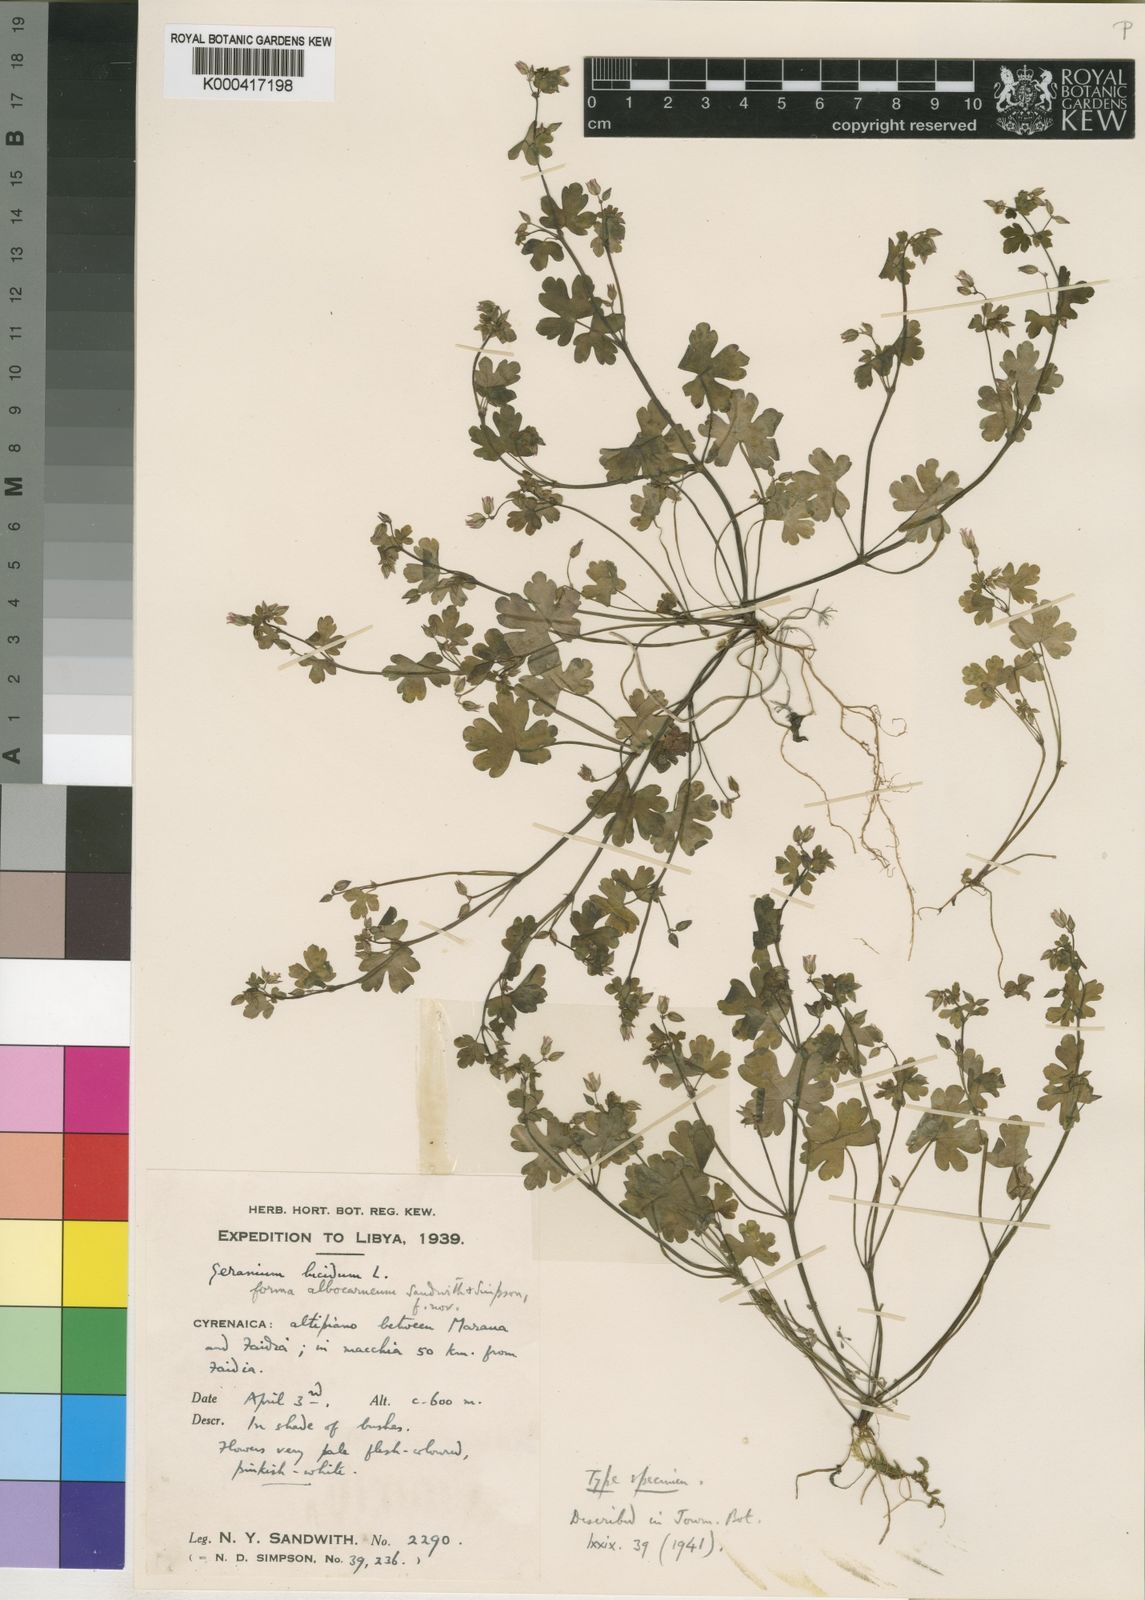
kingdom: Plantae
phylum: Tracheophyta
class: Magnoliopsida
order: Geraniales
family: Geraniaceae
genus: Geranium
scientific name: Geranium lucidum
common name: Shining crane's-bill
